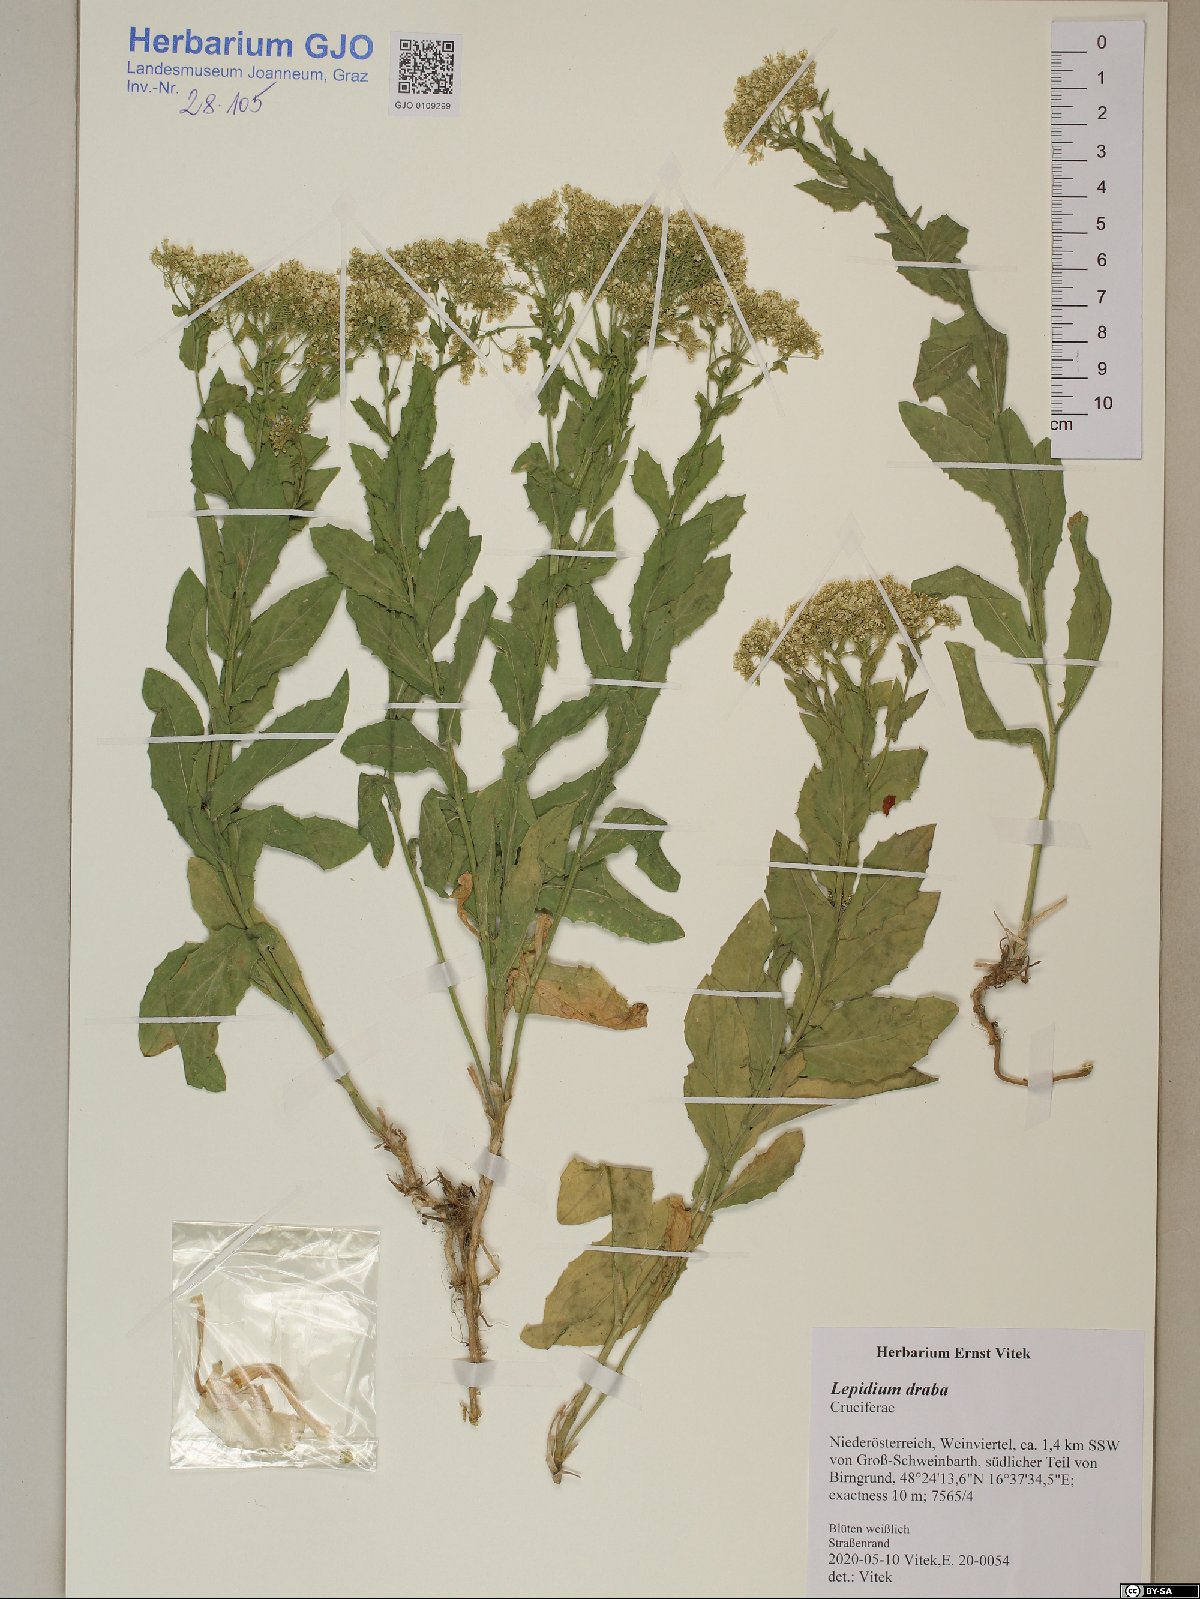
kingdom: Plantae
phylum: Tracheophyta
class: Magnoliopsida
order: Brassicales
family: Brassicaceae
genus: Lepidium
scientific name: Lepidium draba
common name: Hoary cress
